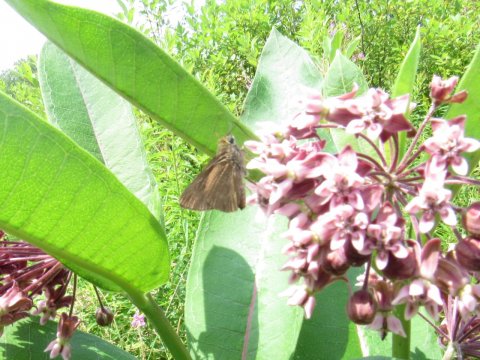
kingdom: Animalia
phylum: Arthropoda
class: Insecta
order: Lepidoptera
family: Hesperiidae
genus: Euphyes
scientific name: Euphyes
